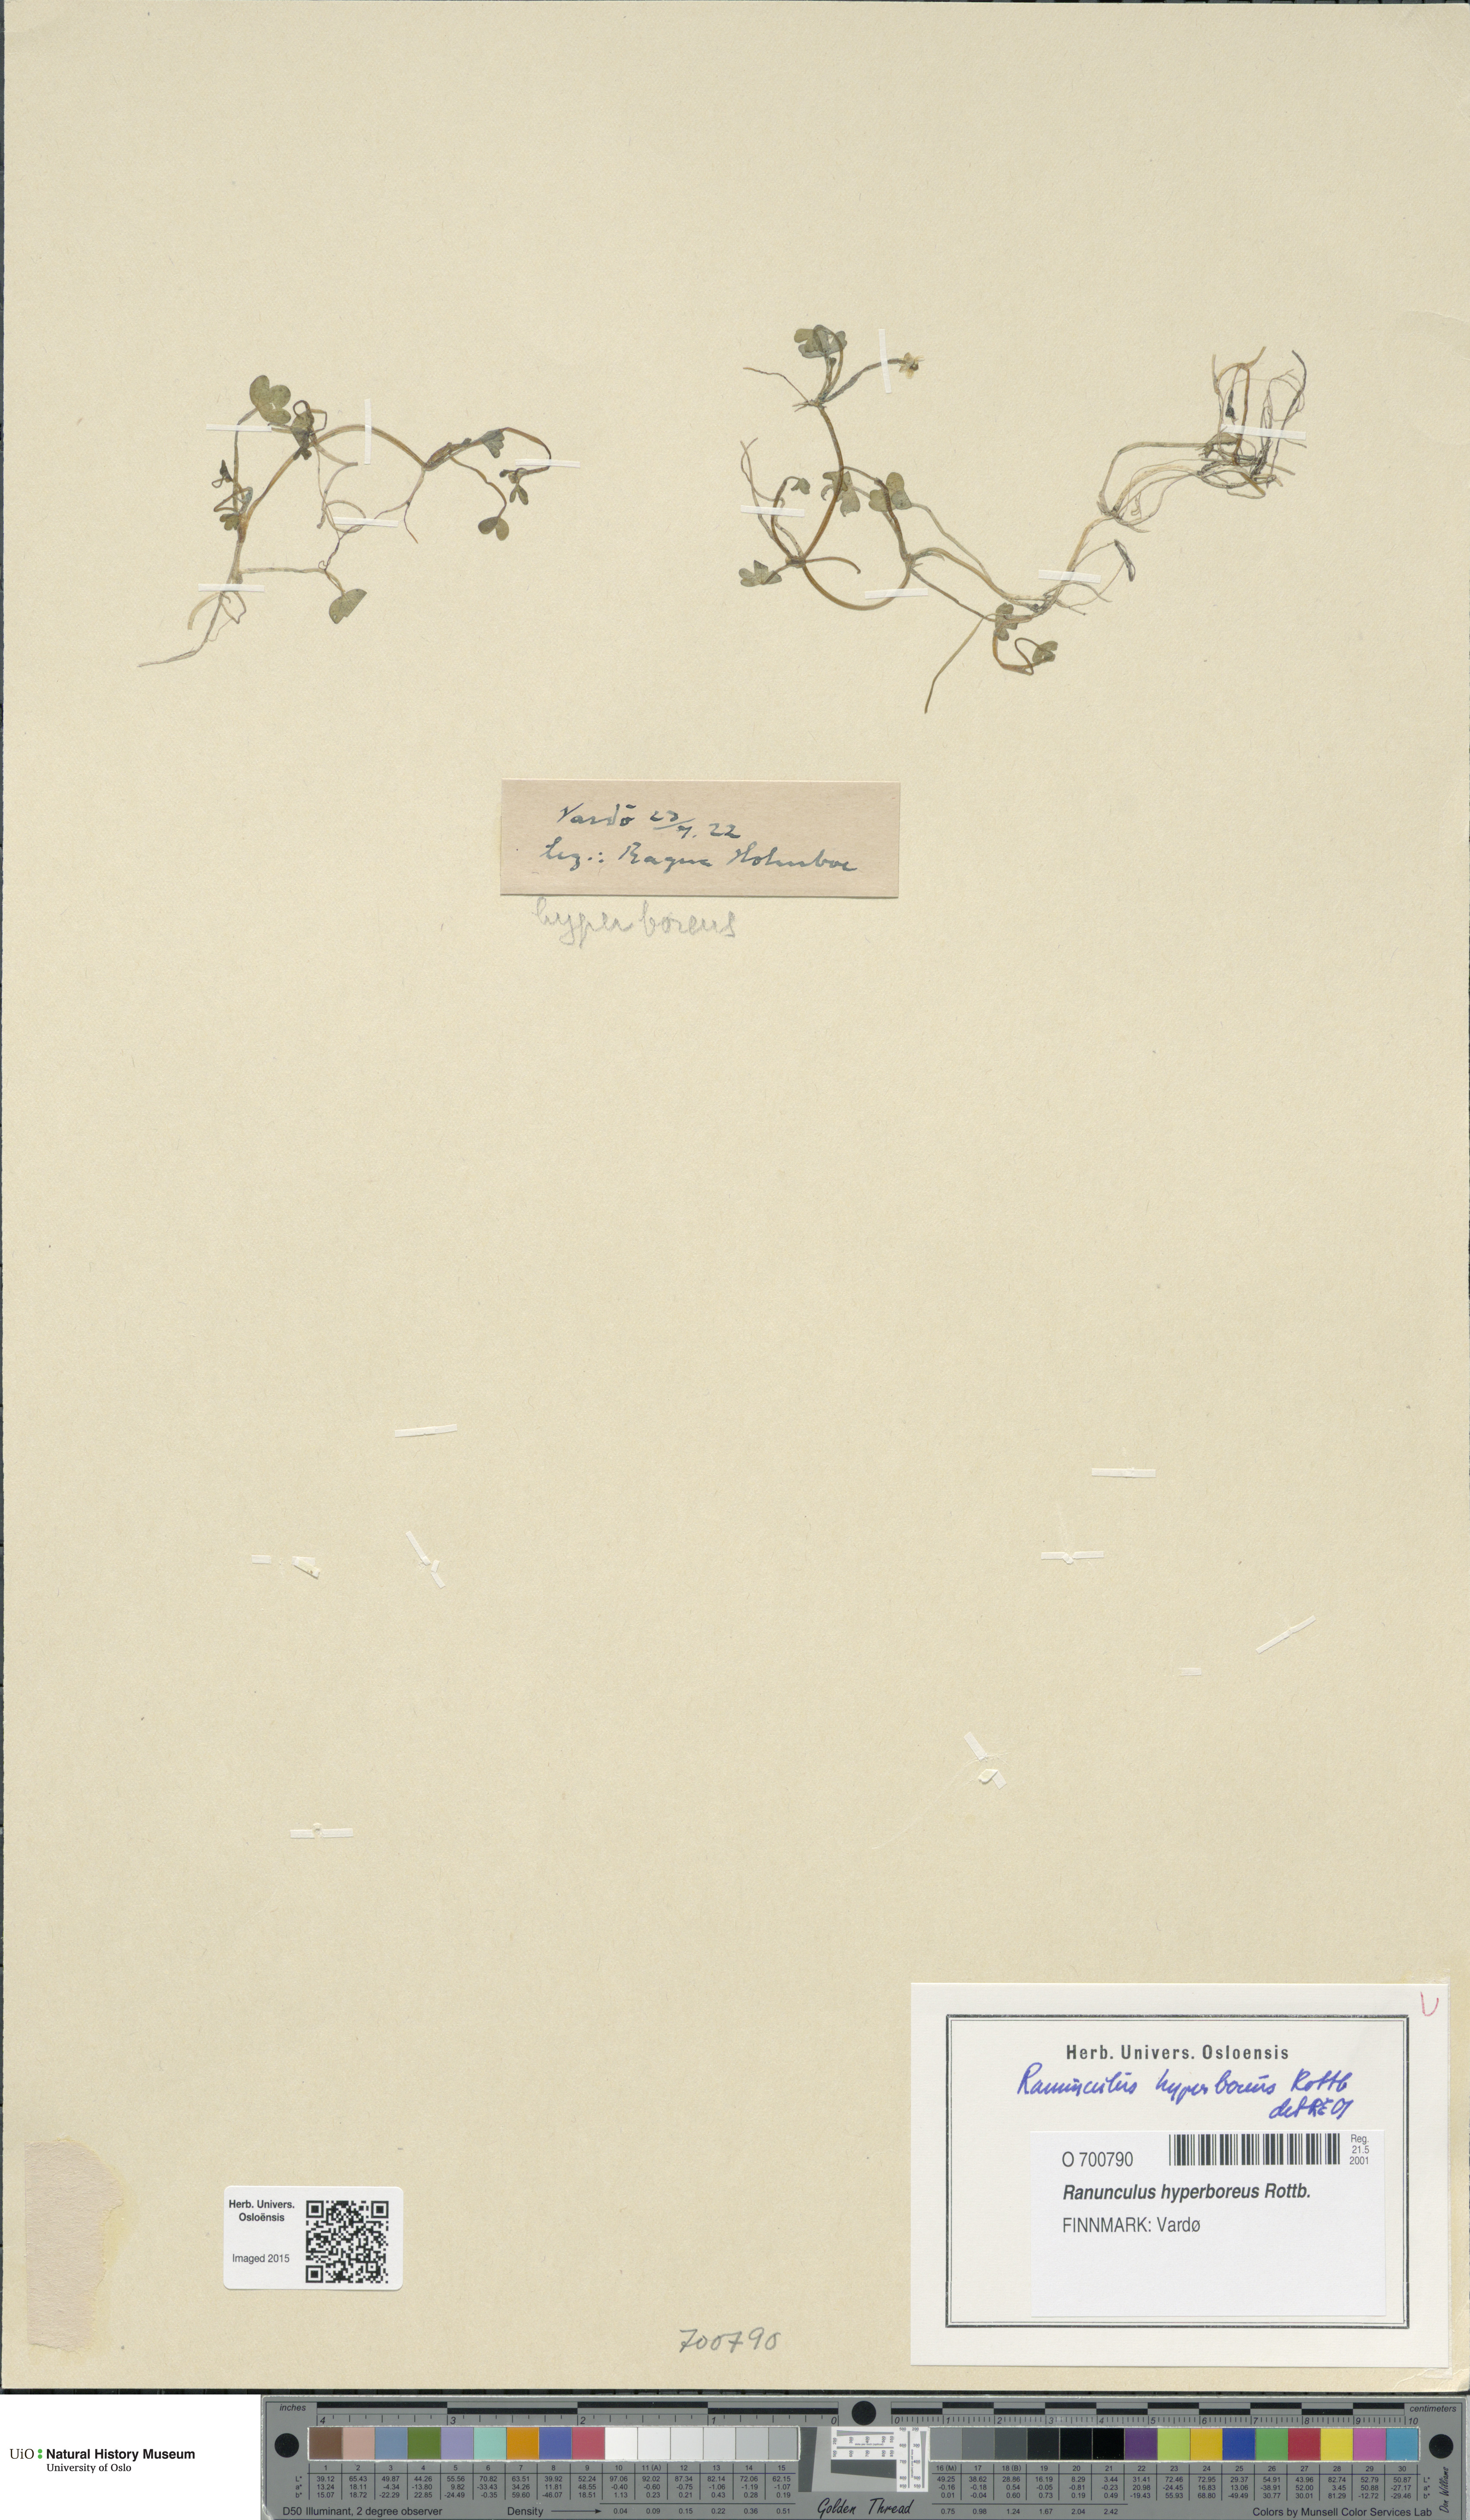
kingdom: Plantae
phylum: Tracheophyta
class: Magnoliopsida
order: Ranunculales
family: Ranunculaceae
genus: Ranunculus
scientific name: Ranunculus hyperboreus
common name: Arctic buttercup
